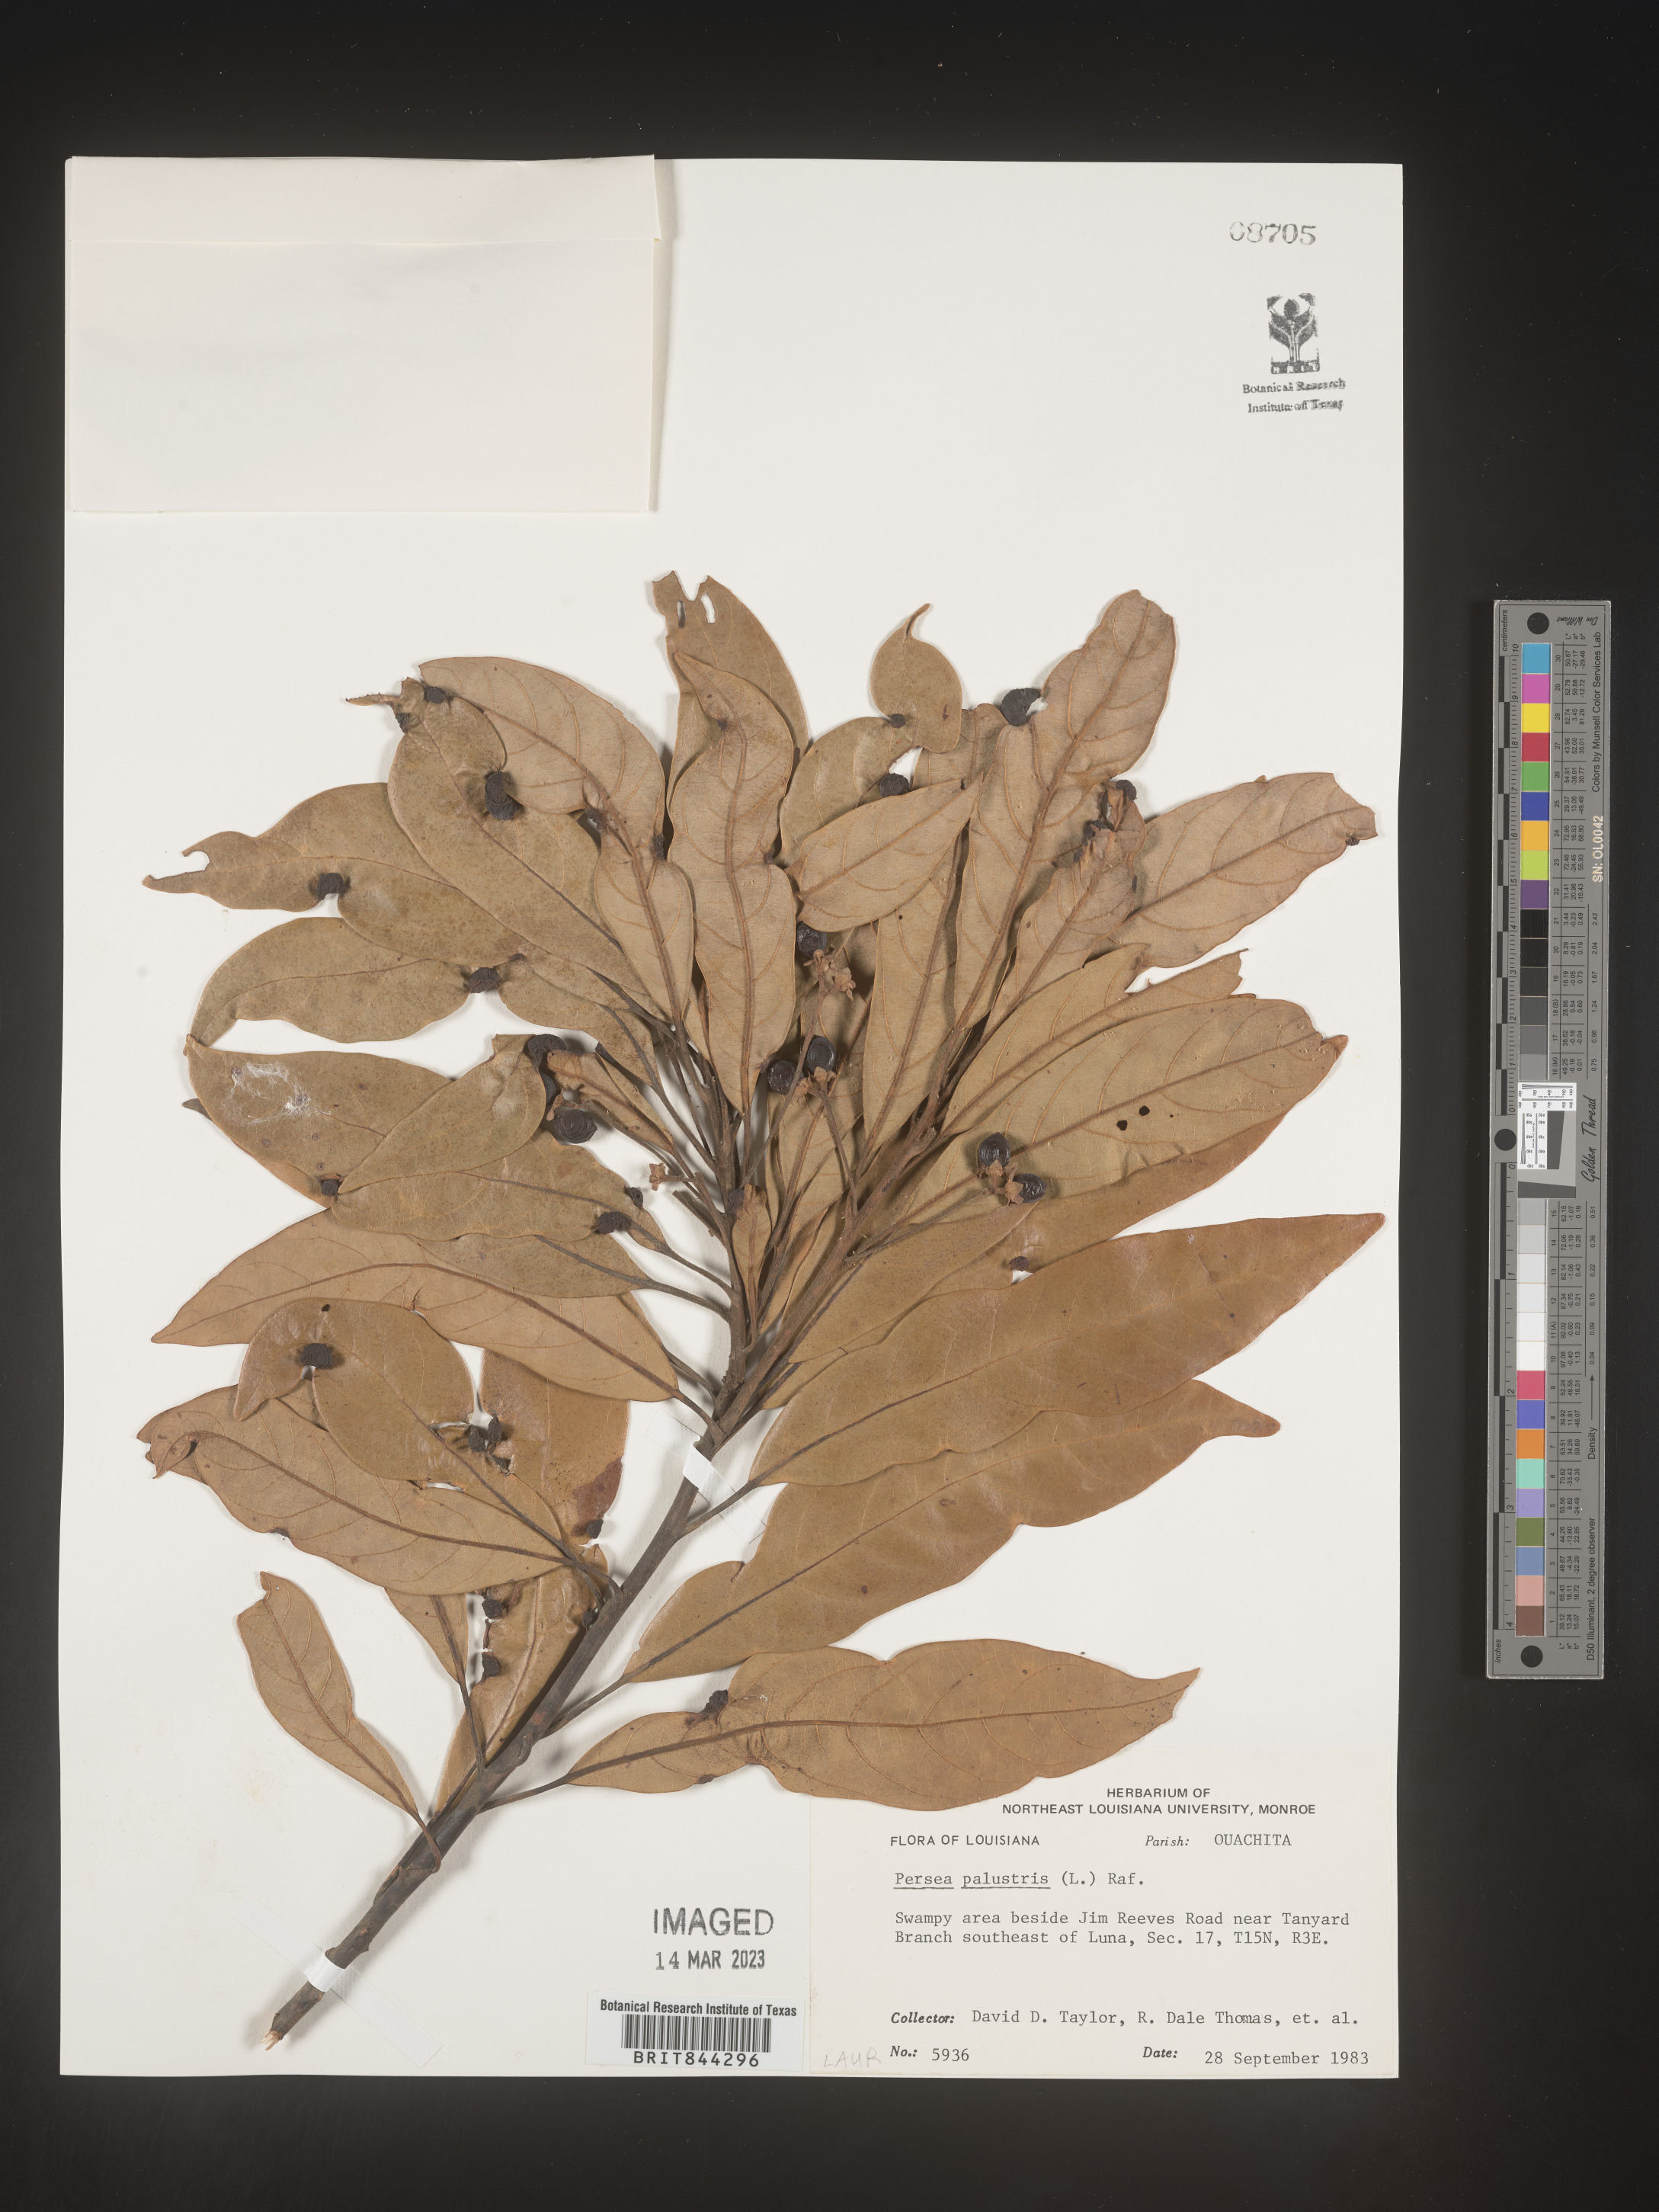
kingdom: Plantae
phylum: Tracheophyta
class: Magnoliopsida
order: Laurales
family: Lauraceae
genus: Persea
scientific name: Persea palustris
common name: Swampbay
